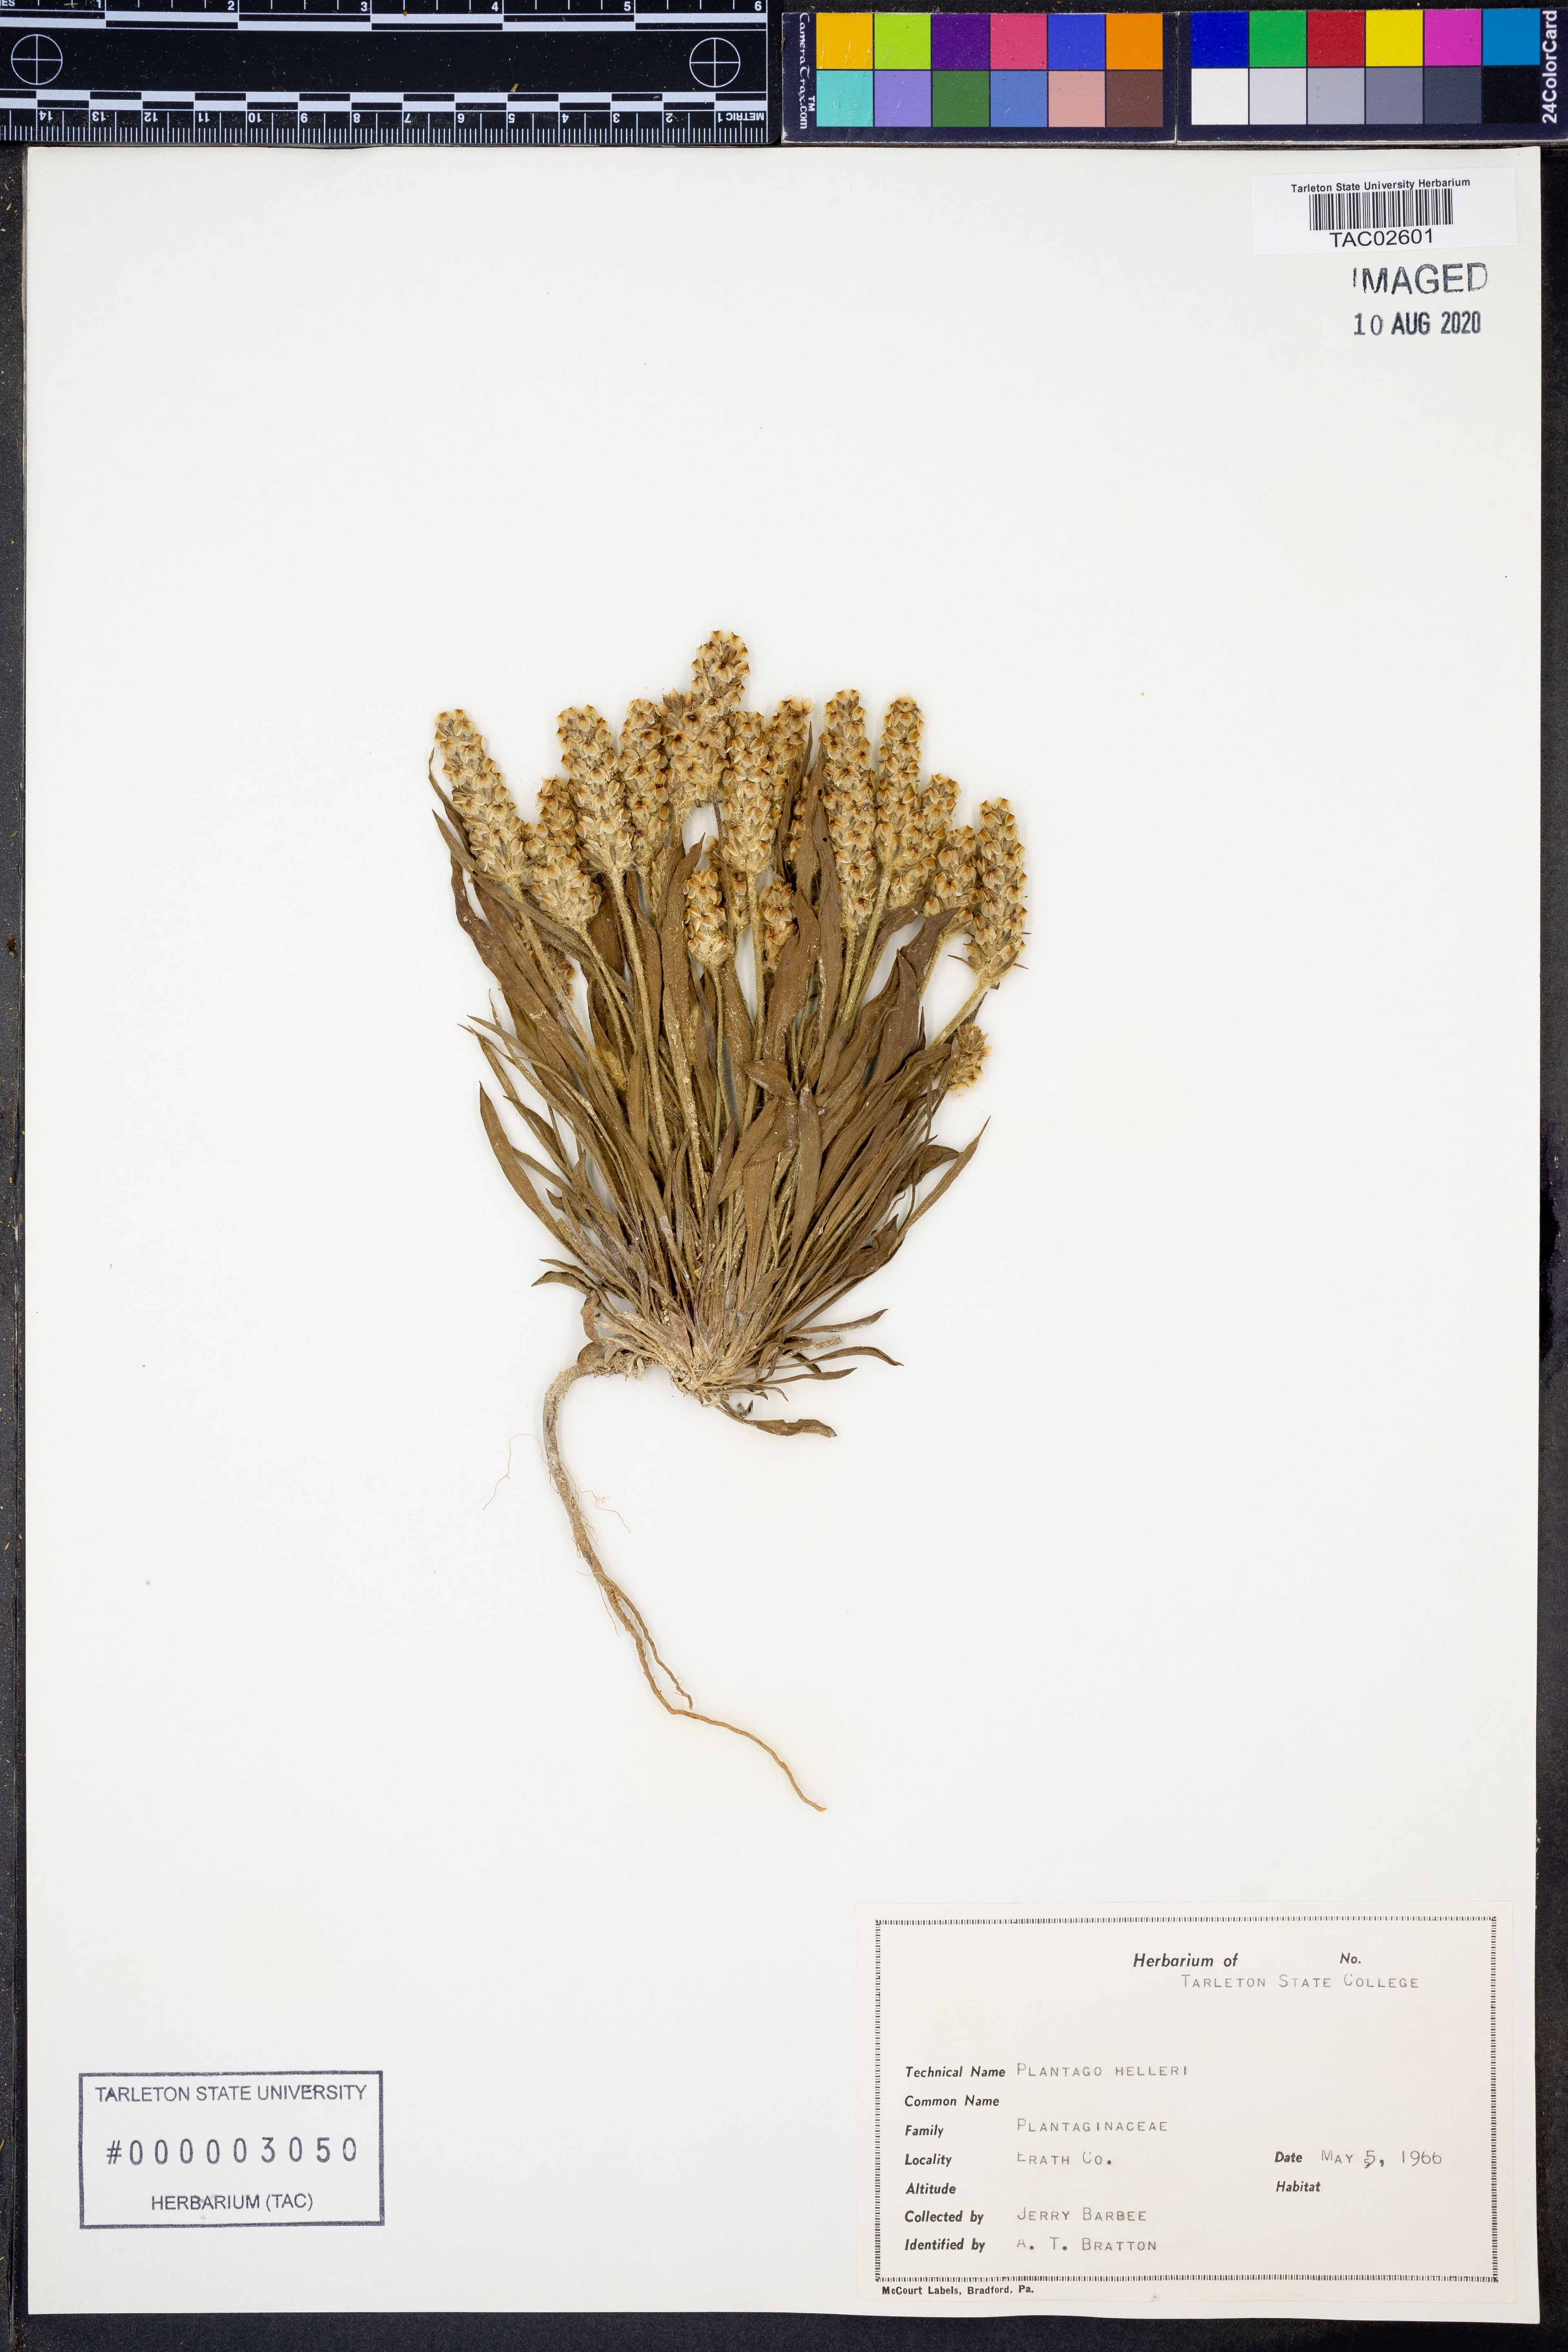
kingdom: Plantae
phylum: Tracheophyta
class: Magnoliopsida
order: Lamiales
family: Plantaginaceae
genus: Plantago
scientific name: Plantago helleri
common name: Heller's plantain
